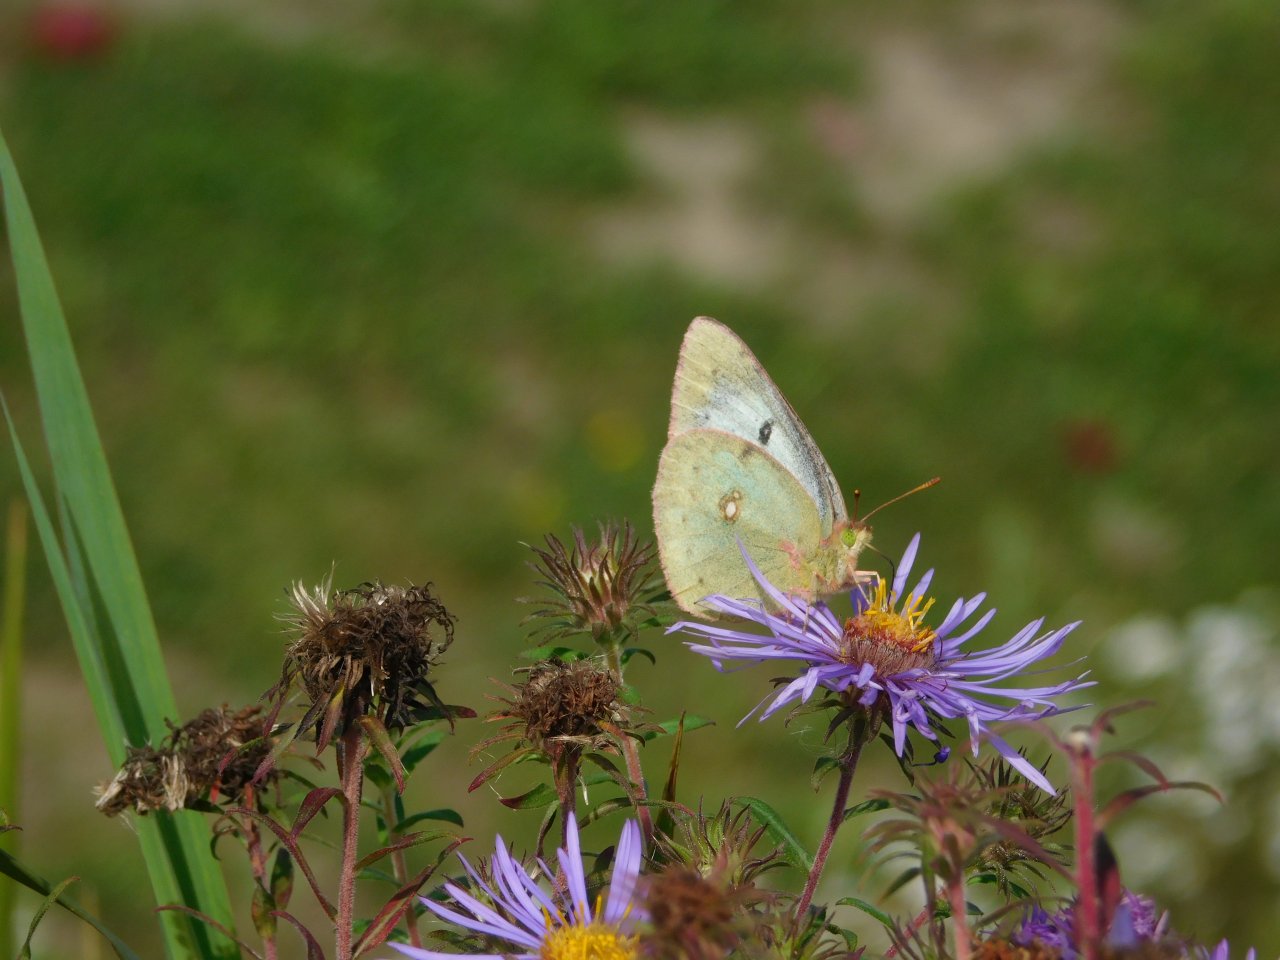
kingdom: Animalia
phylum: Arthropoda
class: Insecta
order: Lepidoptera
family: Pieridae
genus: Colias
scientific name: Colias philodice
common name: Clouded Sulphur
